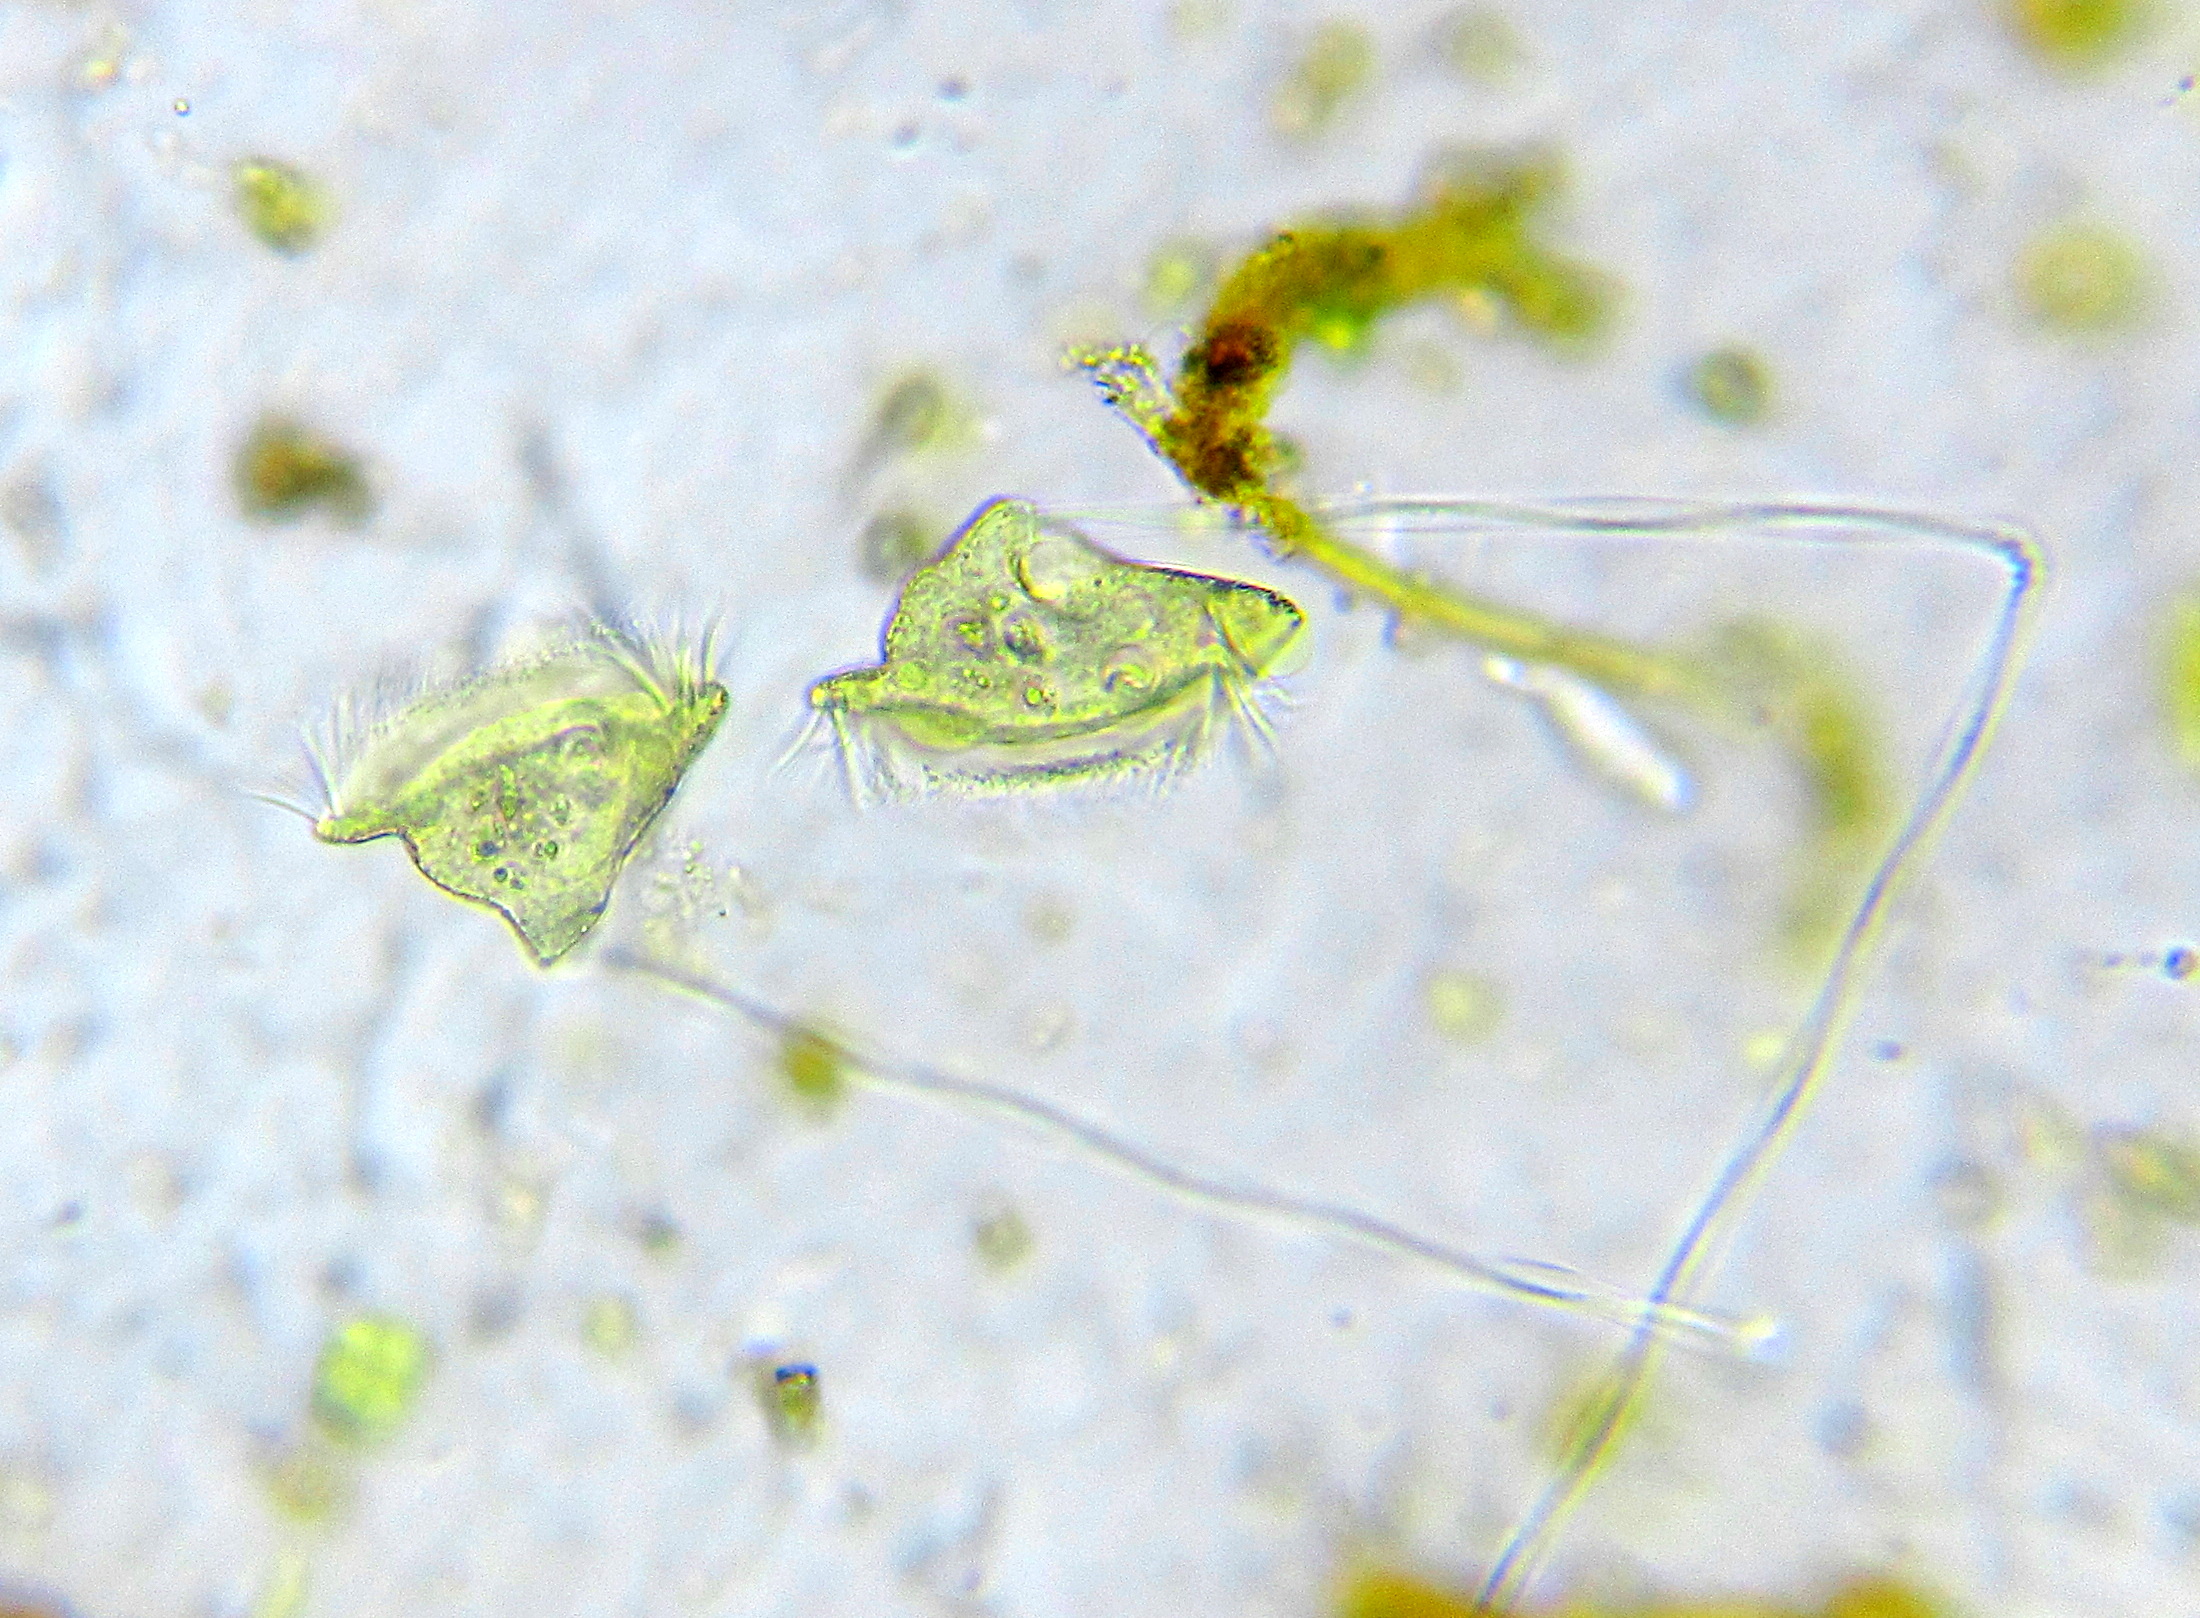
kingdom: Chromista
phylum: Ciliophora
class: Oligohymenophorea
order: Peritrichida
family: Vorticellidae
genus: Vorticella
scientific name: Vorticella citrina
